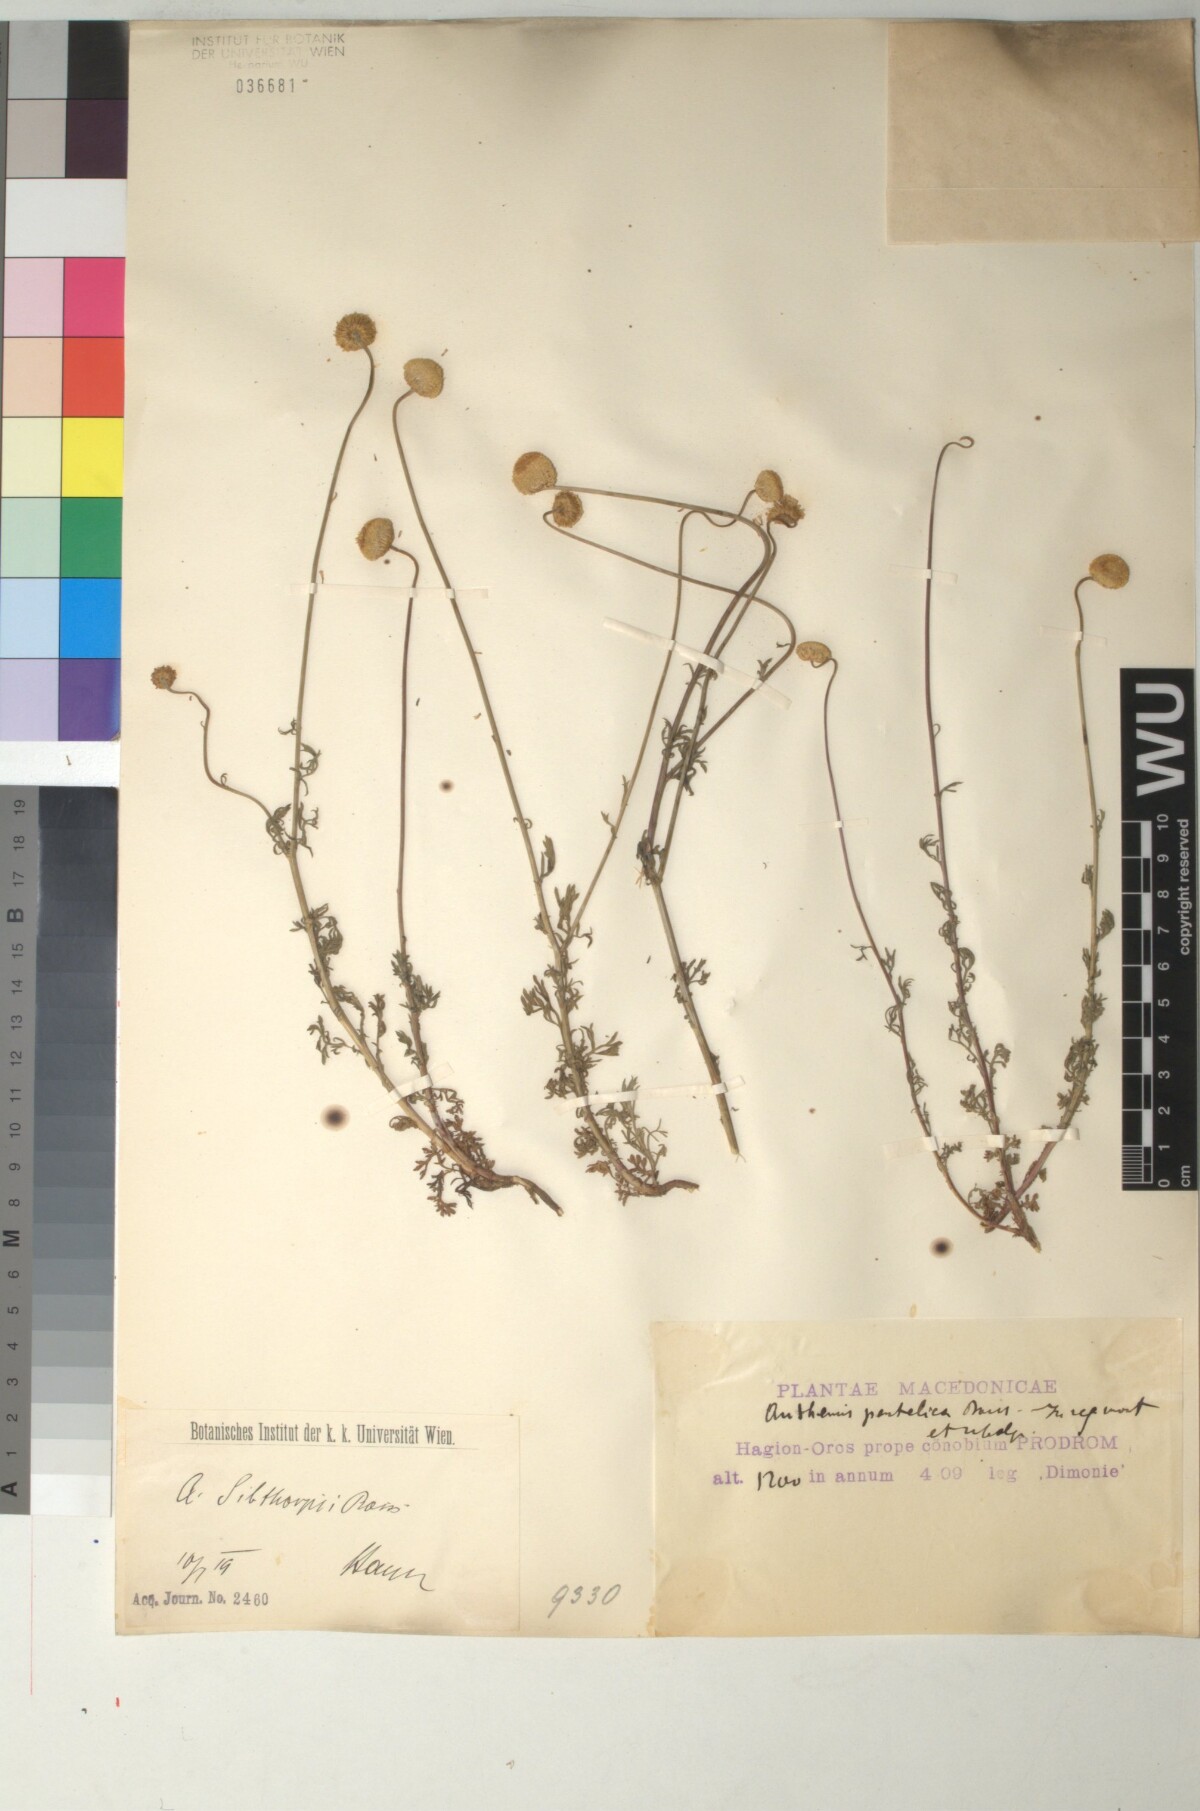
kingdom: Plantae
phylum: Tracheophyta
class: Magnoliopsida
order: Asterales
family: Asteraceae
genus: Anthemis
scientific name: Anthemis sibthorpii
